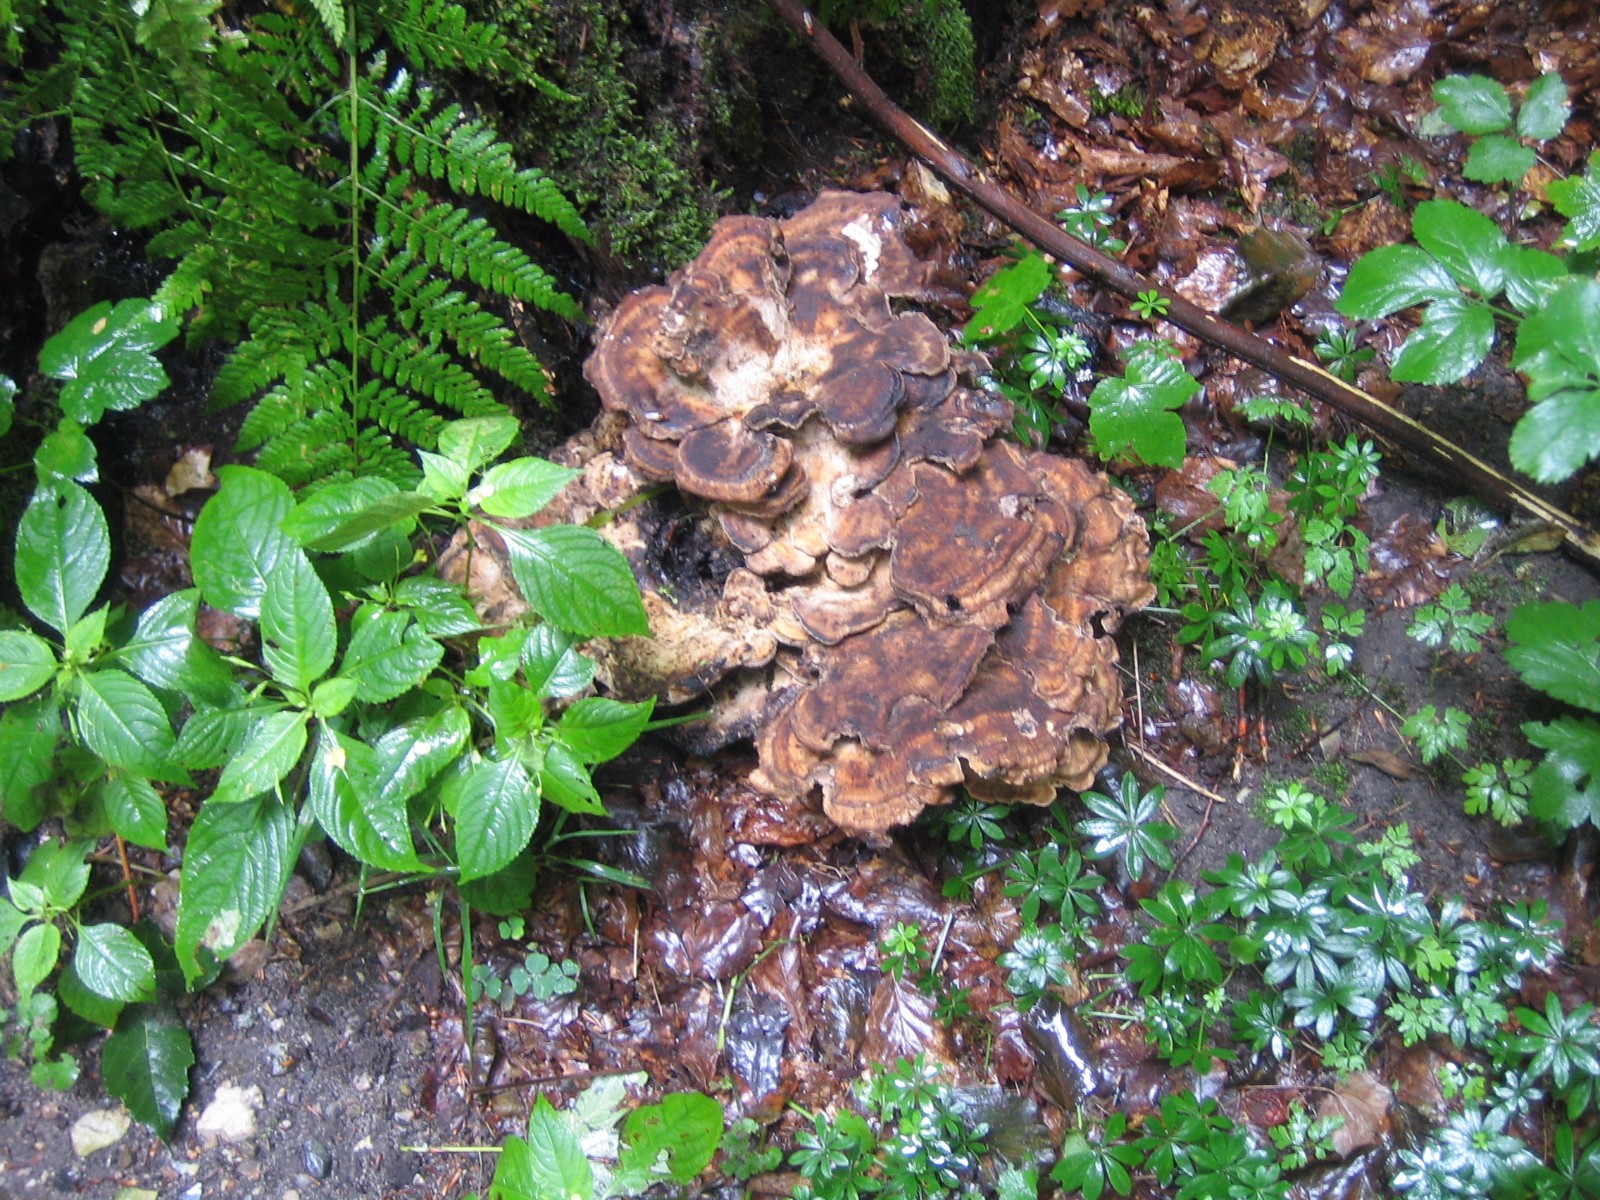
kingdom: Fungi
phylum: Basidiomycota
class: Agaricomycetes
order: Polyporales
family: Meripilaceae
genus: Meripilus
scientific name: Meripilus giganteus
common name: kæmpeporesvamp
